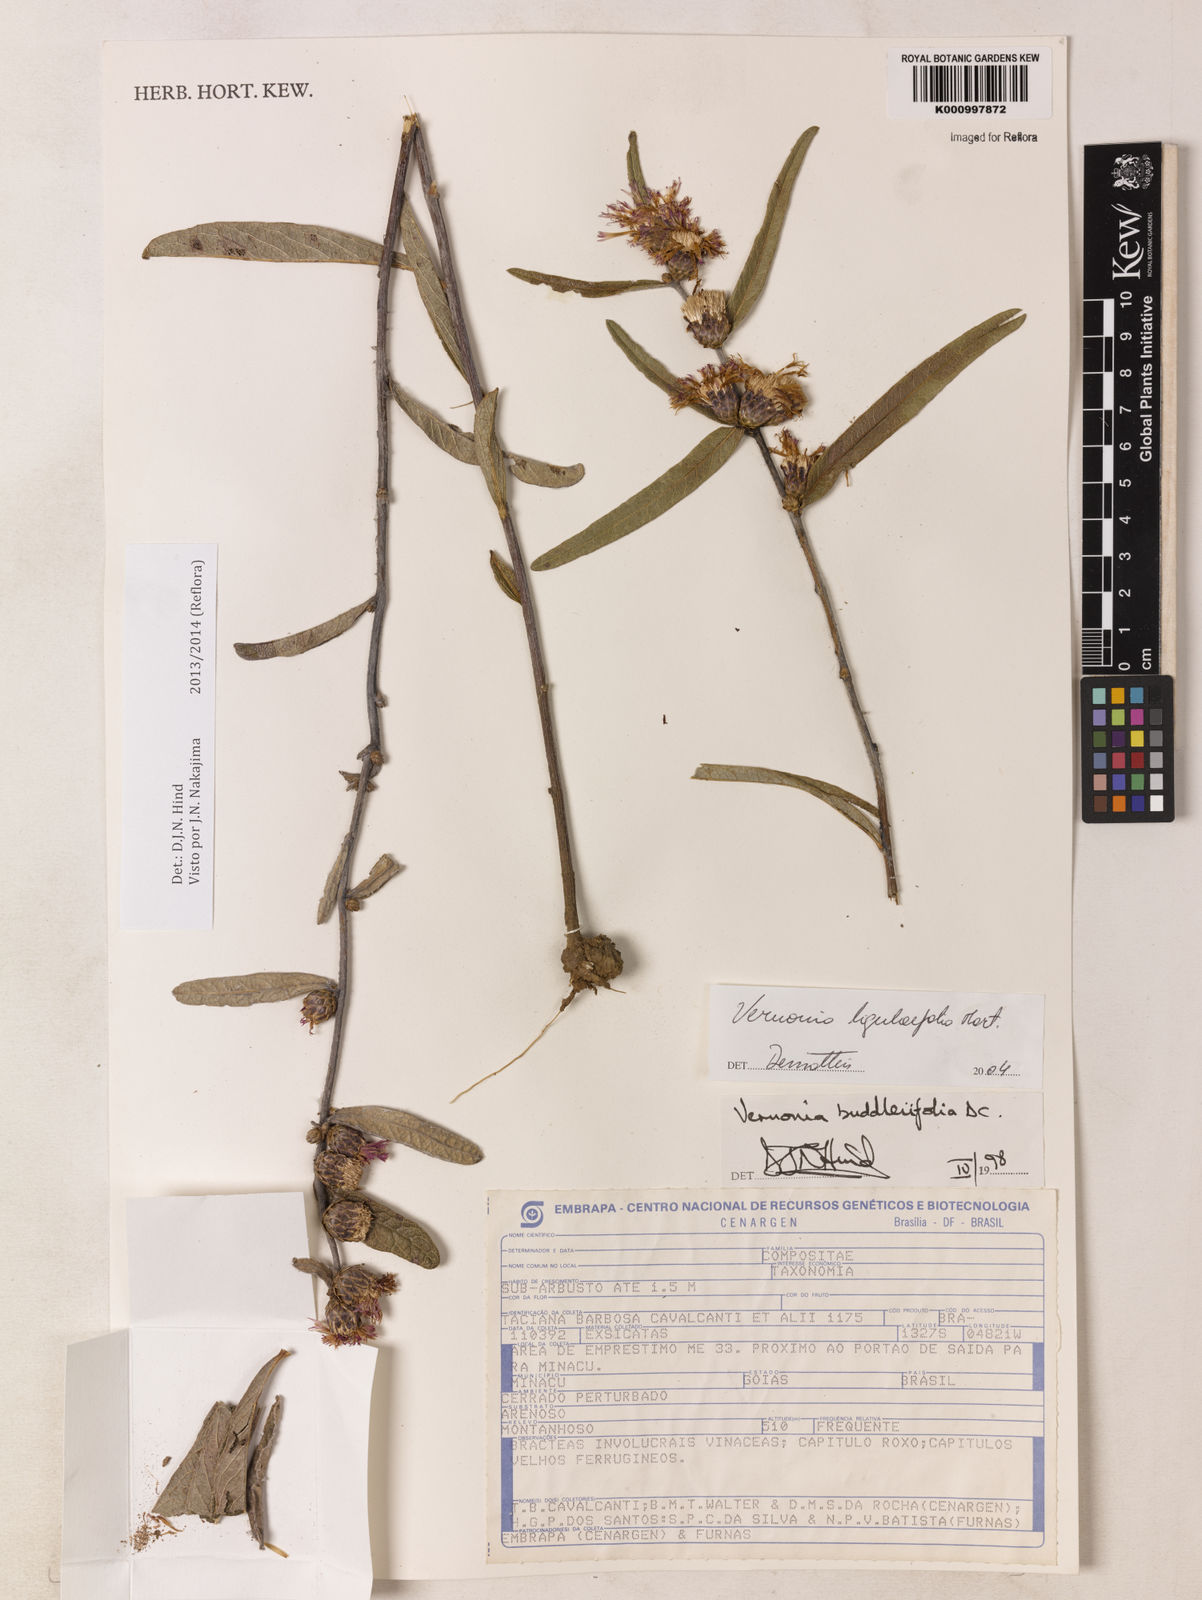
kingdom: Plantae
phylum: Tracheophyta
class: Magnoliopsida
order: Asterales
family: Asteraceae
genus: Lessingianthus
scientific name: Lessingianthus ligulifolius
